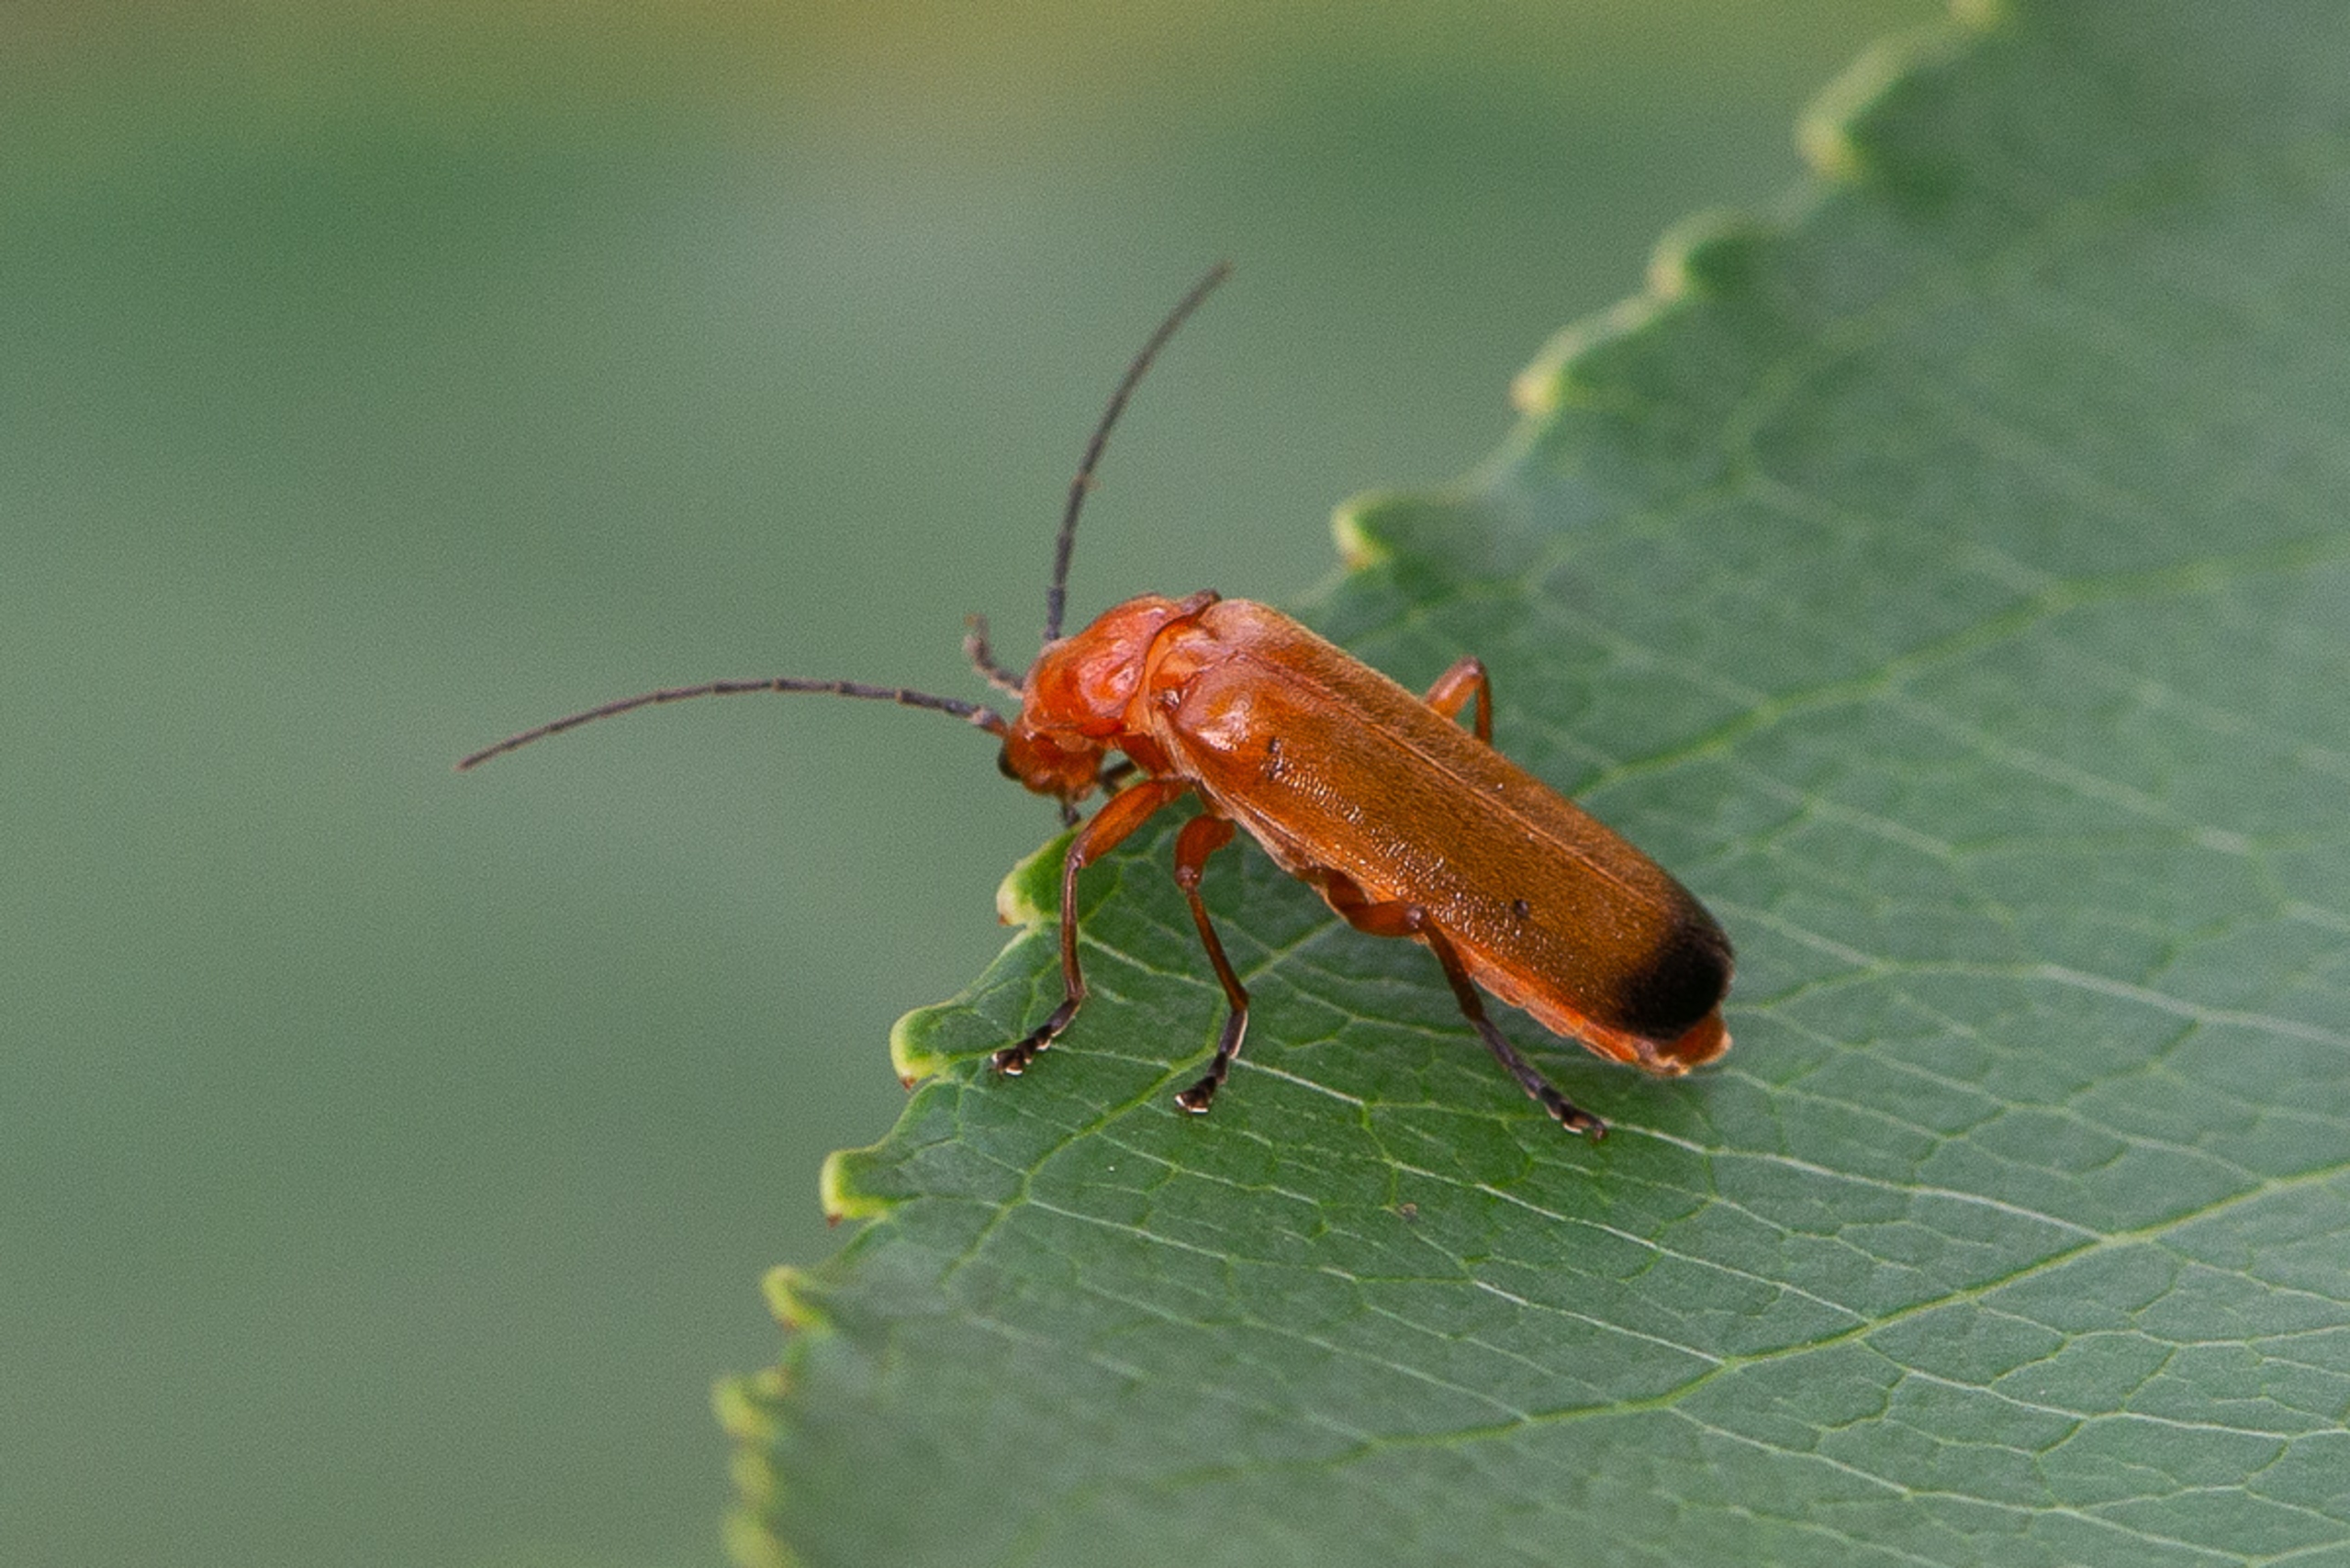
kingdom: Animalia
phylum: Arthropoda
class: Insecta
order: Coleoptera
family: Cantharidae
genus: Rhagonycha
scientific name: Rhagonycha fulva
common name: Præstebille
